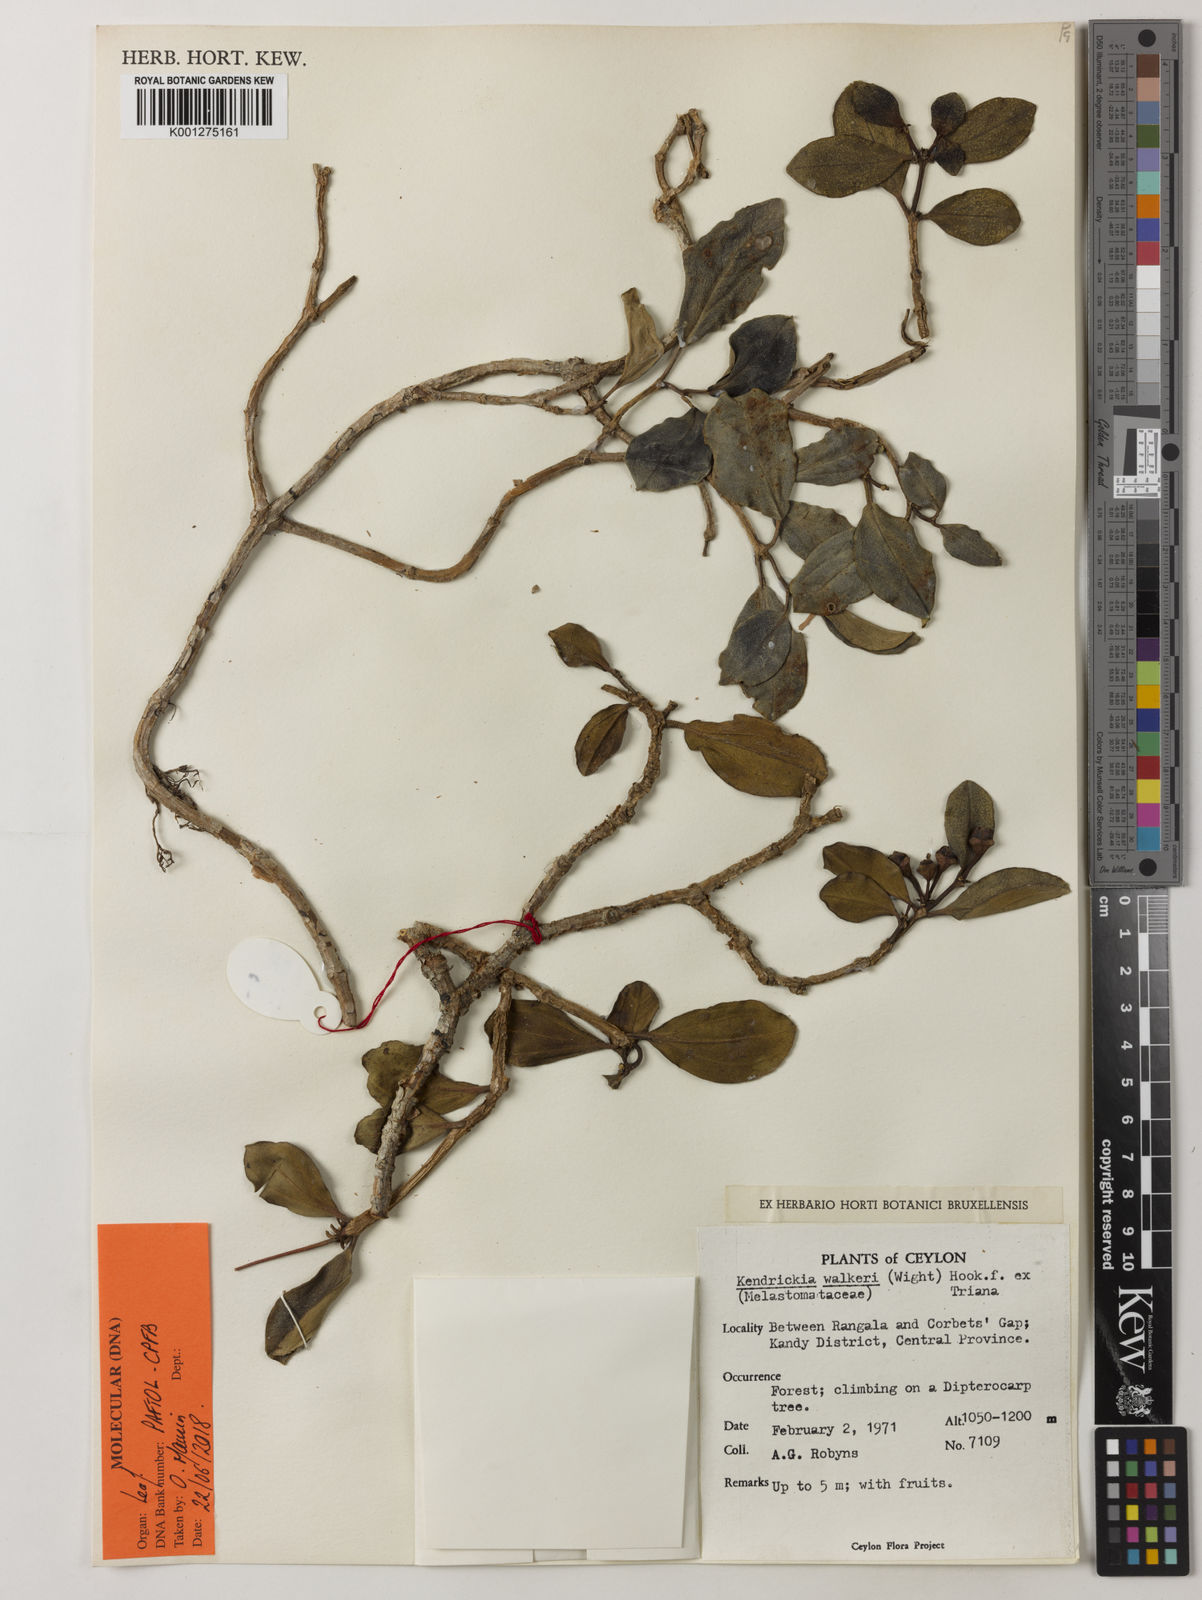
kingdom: Plantae
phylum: Tracheophyta
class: Magnoliopsida
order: Myrtales
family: Melastomataceae
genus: Kendrickia
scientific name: Kendrickia walkeri
